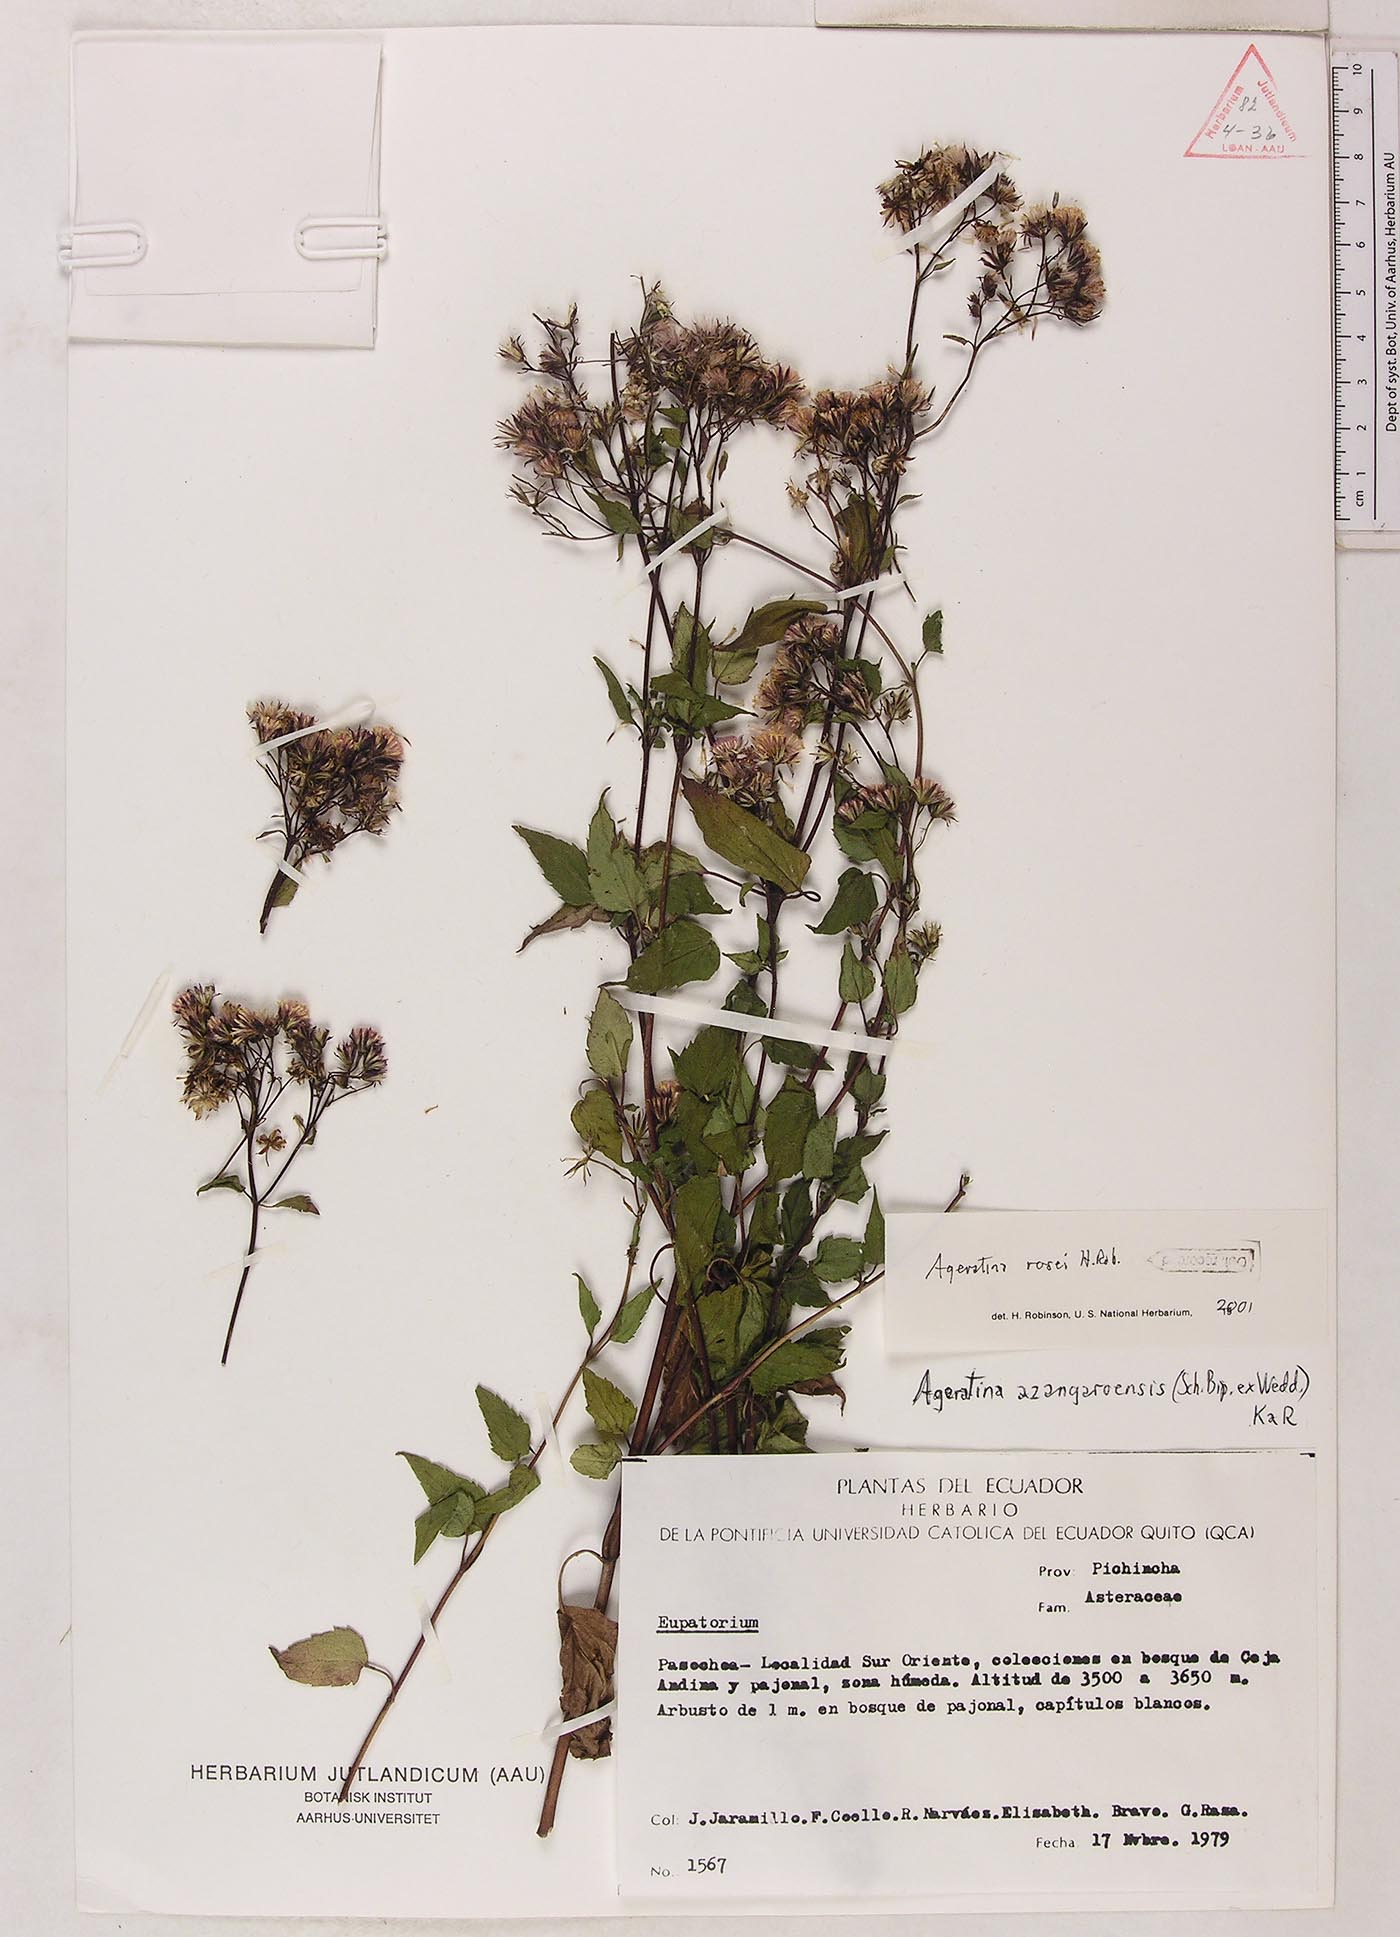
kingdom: Plantae
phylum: Tracheophyta
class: Magnoliopsida
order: Asterales
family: Asteraceae
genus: Ageratina
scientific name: Ageratina rosei
